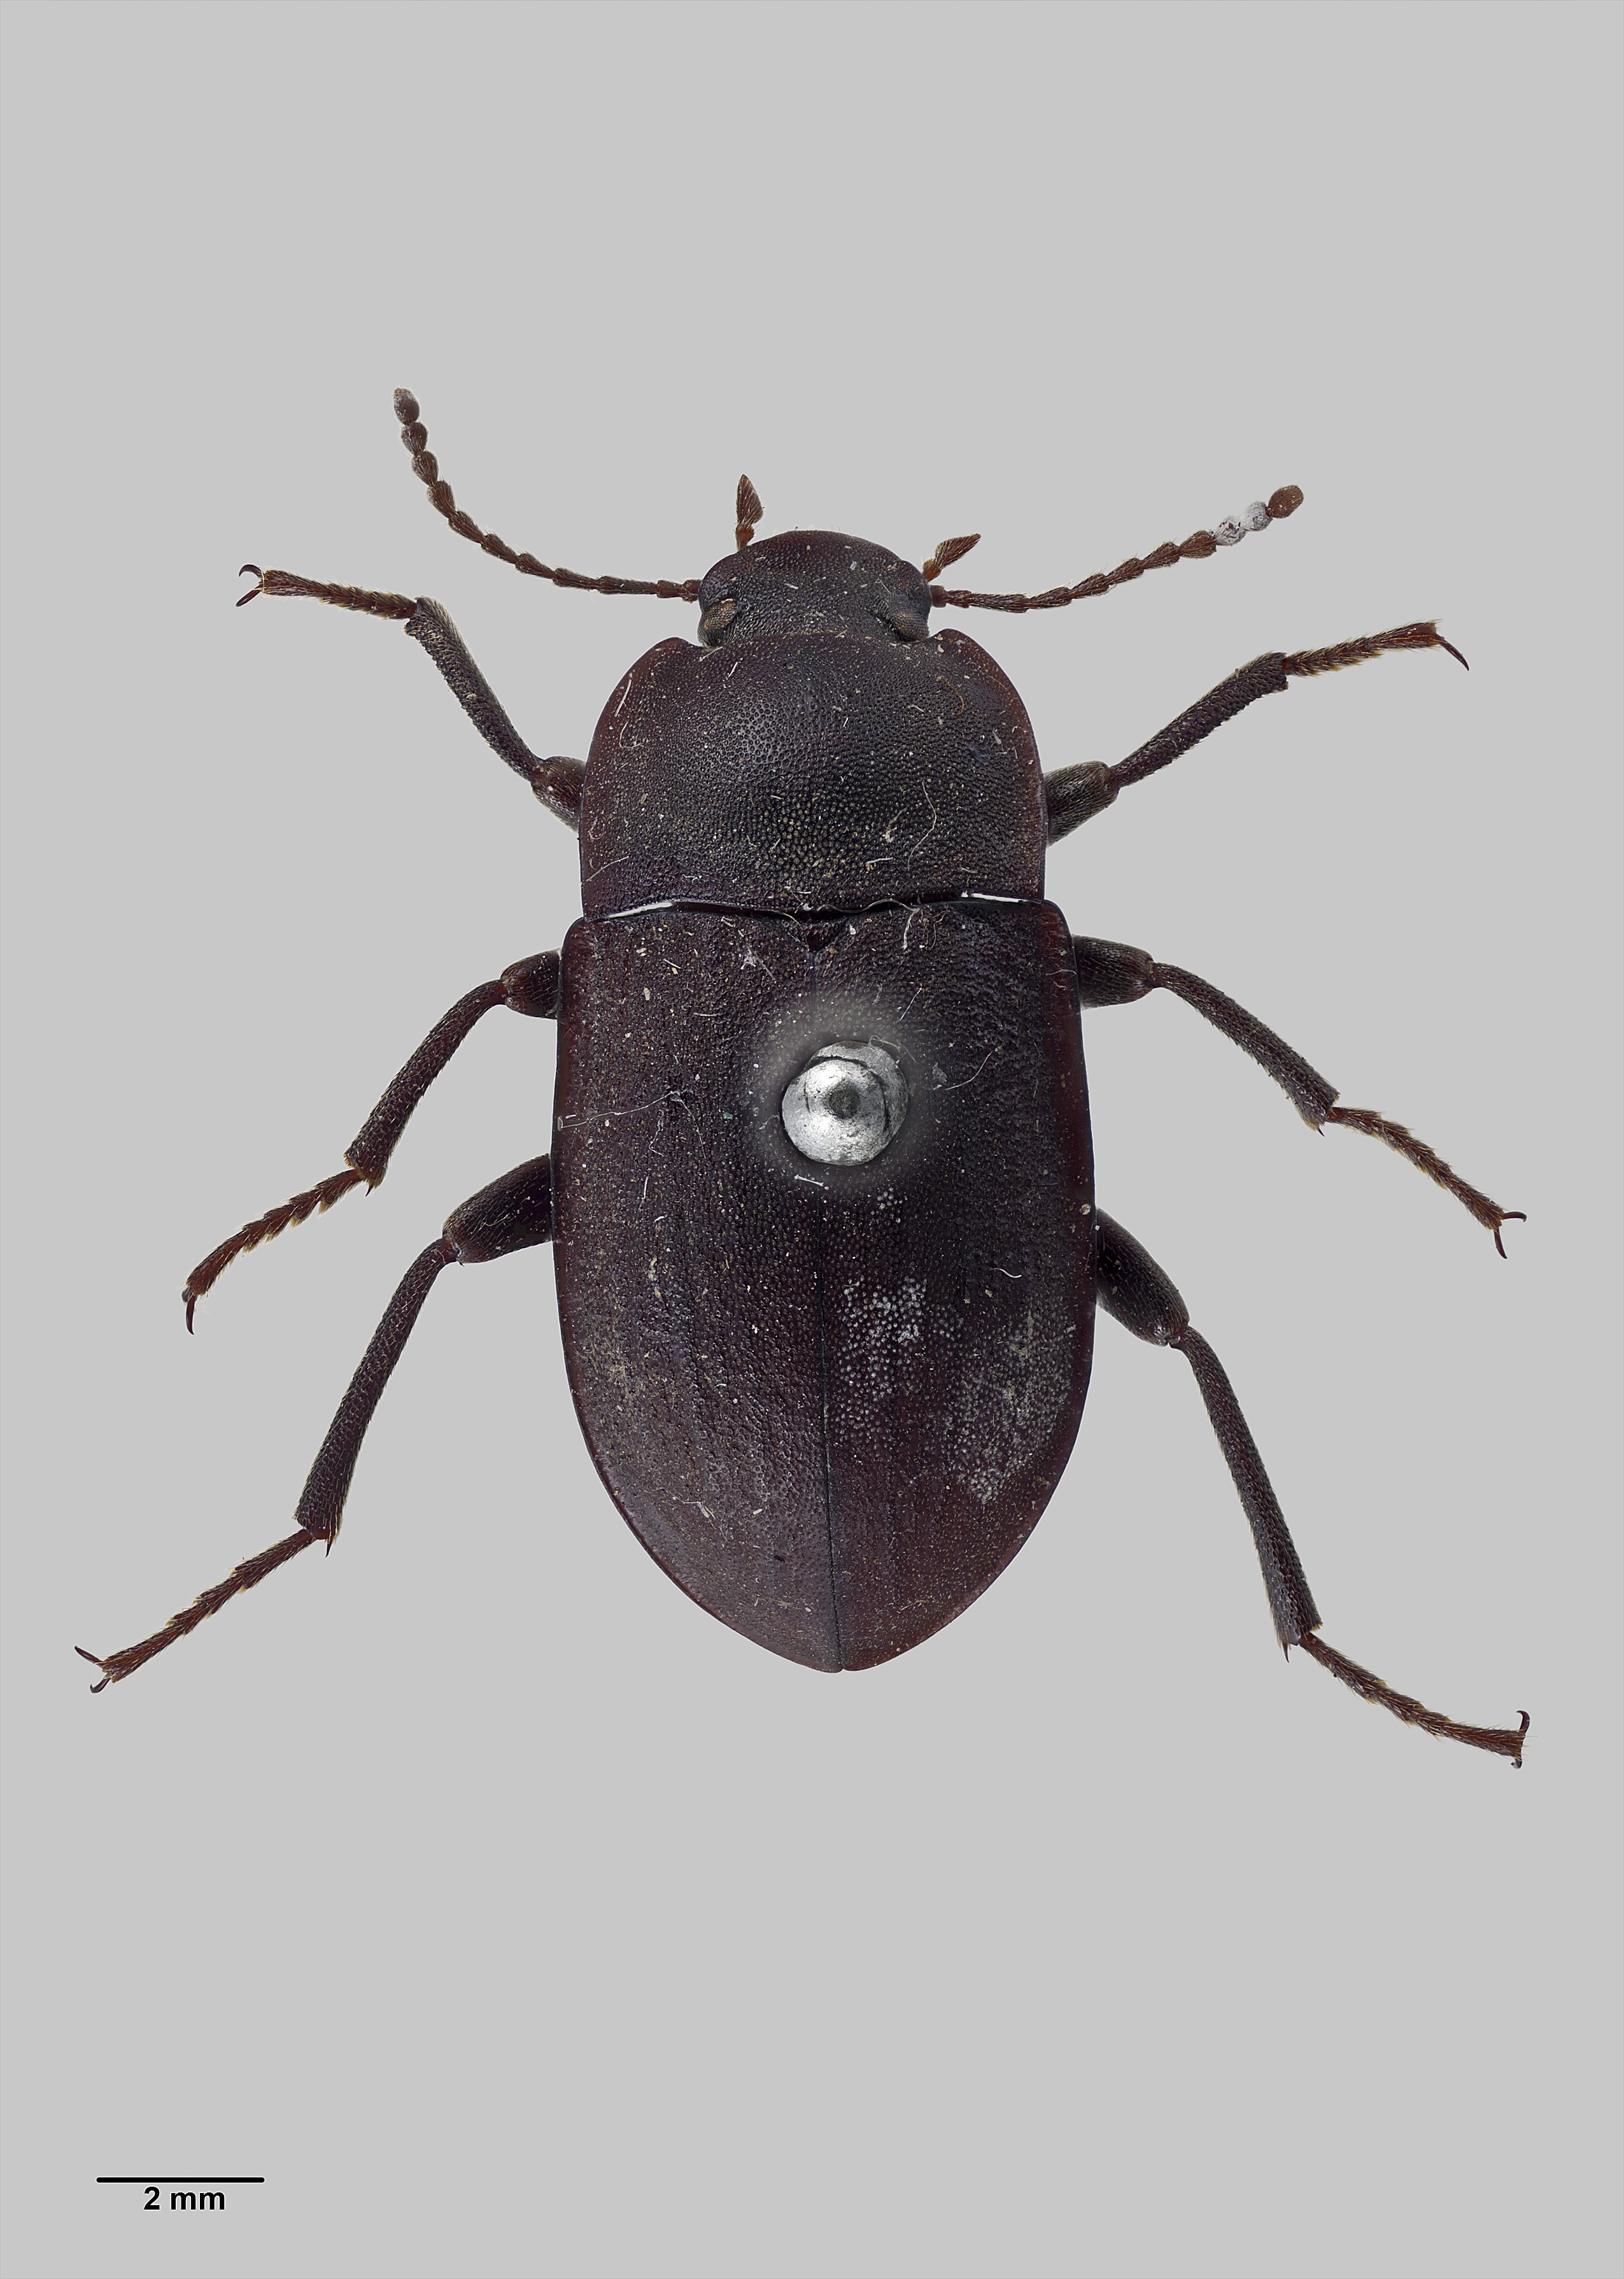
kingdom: Animalia
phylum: Arthropoda
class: Insecta
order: Coleoptera
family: Tenebrionidae
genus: Mimopeus
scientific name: Mimopeus
